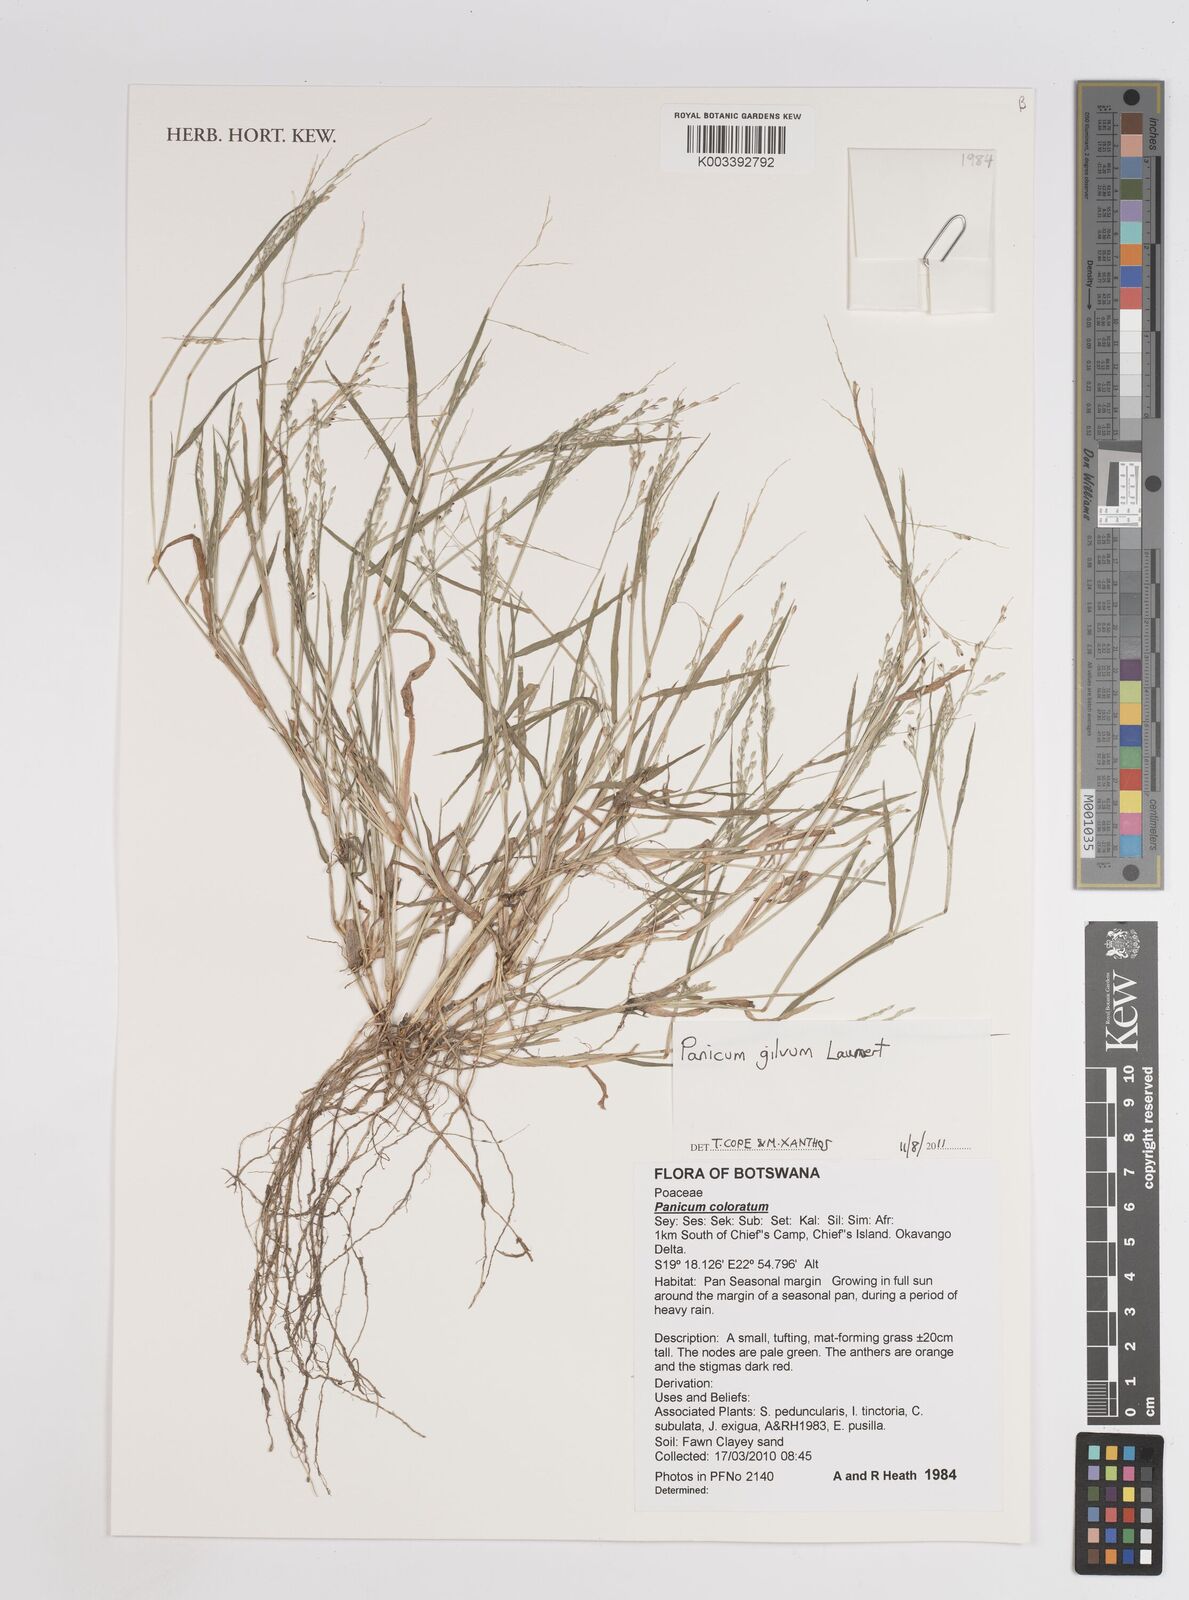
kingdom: Plantae
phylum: Tracheophyta
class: Liliopsida
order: Poales
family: Poaceae
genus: Panicum
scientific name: Panicum gilvum
